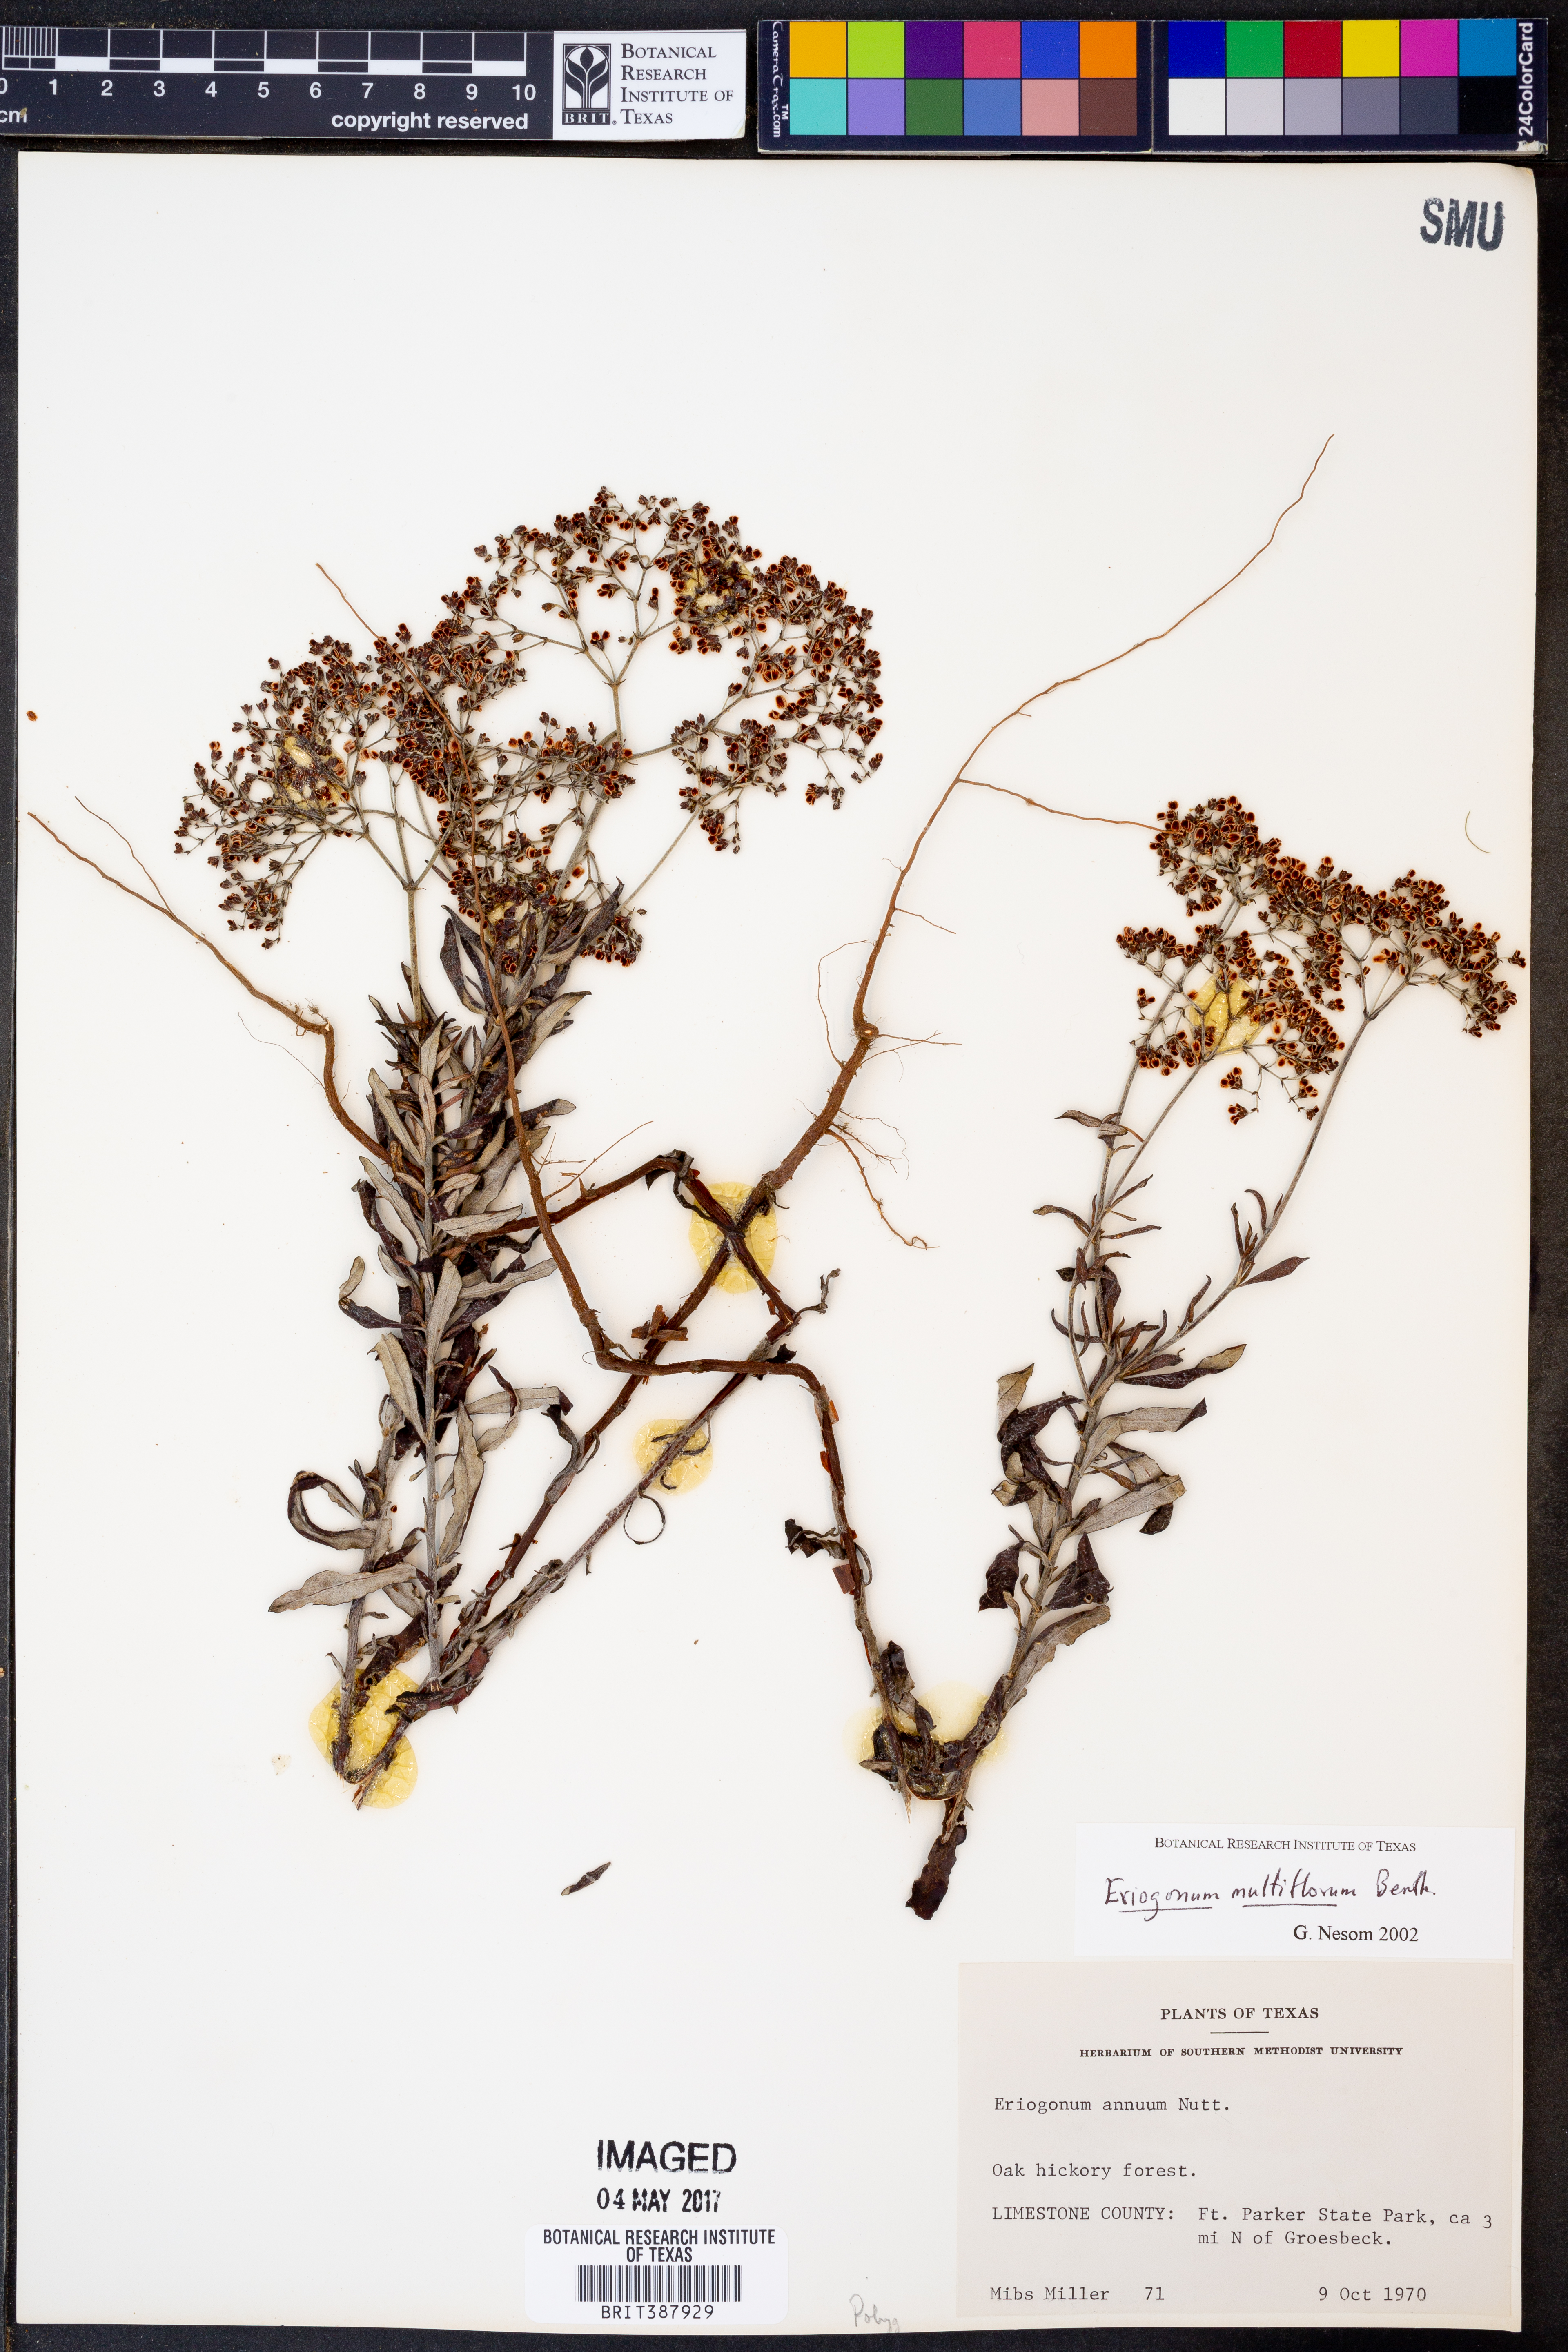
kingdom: Plantae
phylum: Tracheophyta
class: Magnoliopsida
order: Caryophyllales
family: Polygonaceae
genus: Eriogonum
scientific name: Eriogonum multiflorum
